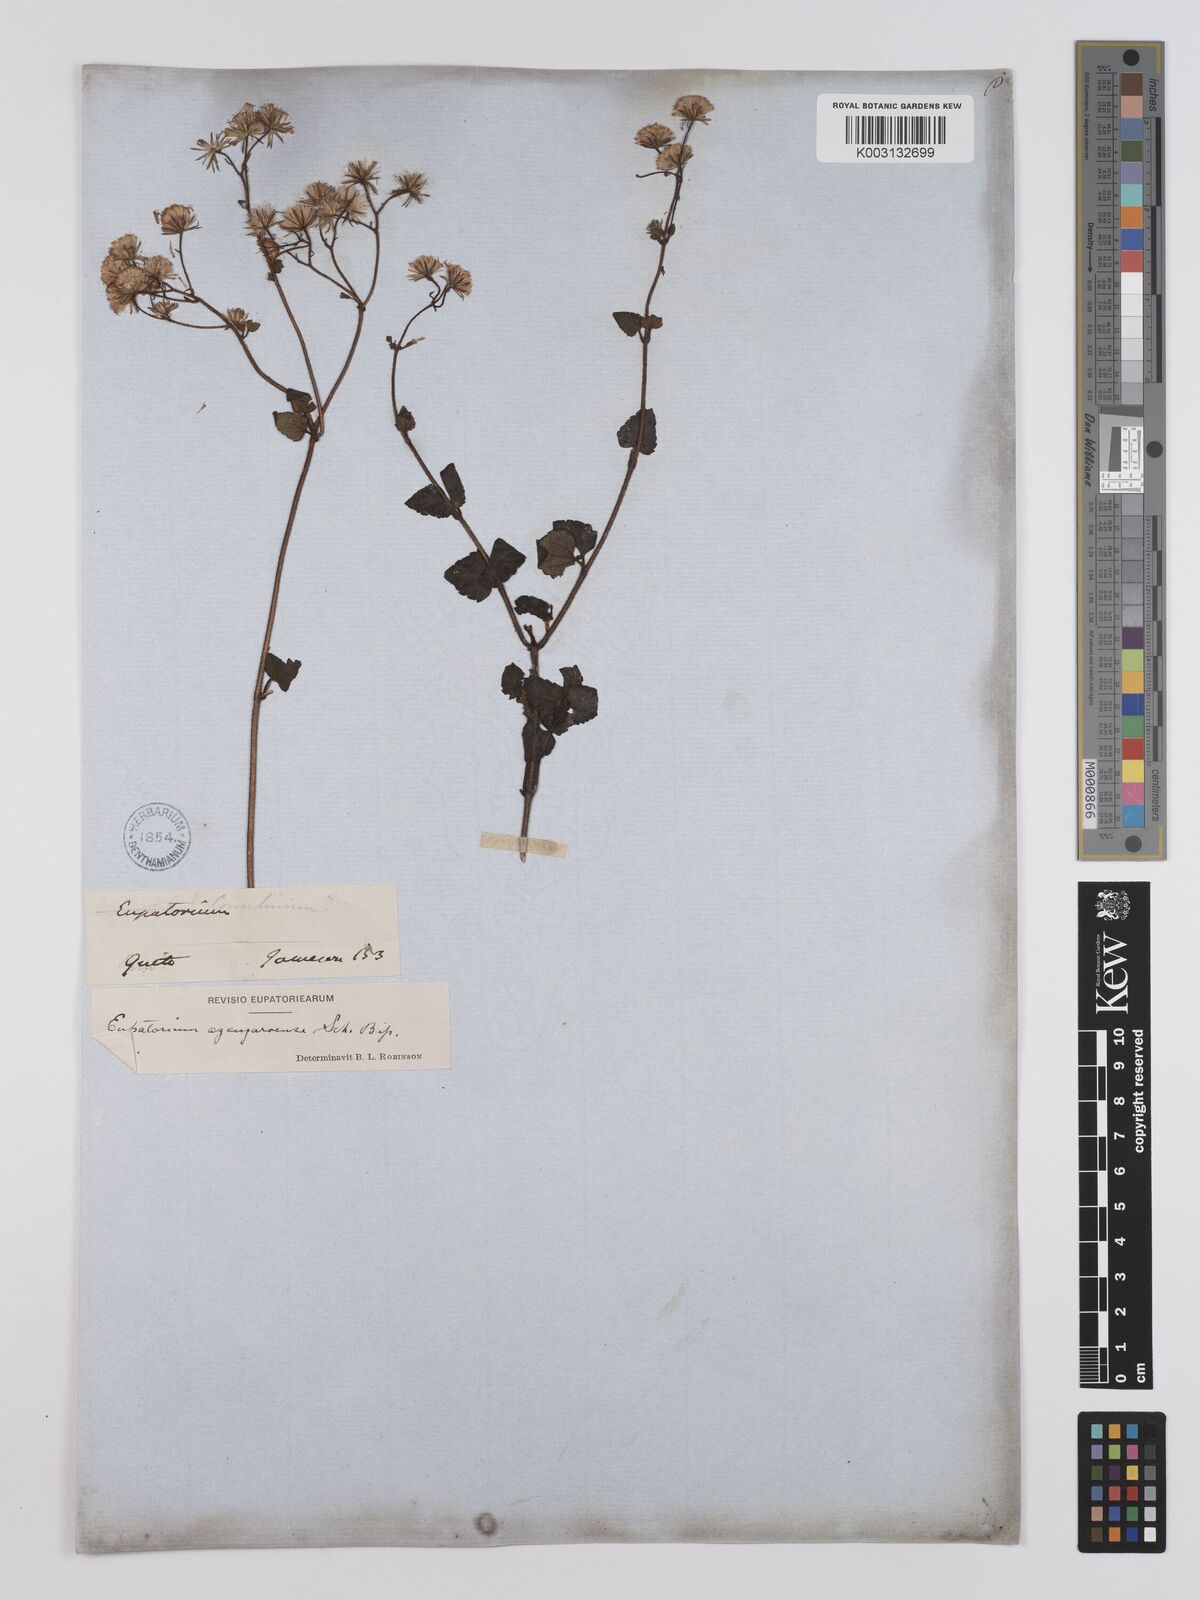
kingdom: Plantae
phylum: Tracheophyta
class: Magnoliopsida
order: Asterales
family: Asteraceae
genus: Ageratina
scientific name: Ageratina glechonophylla
